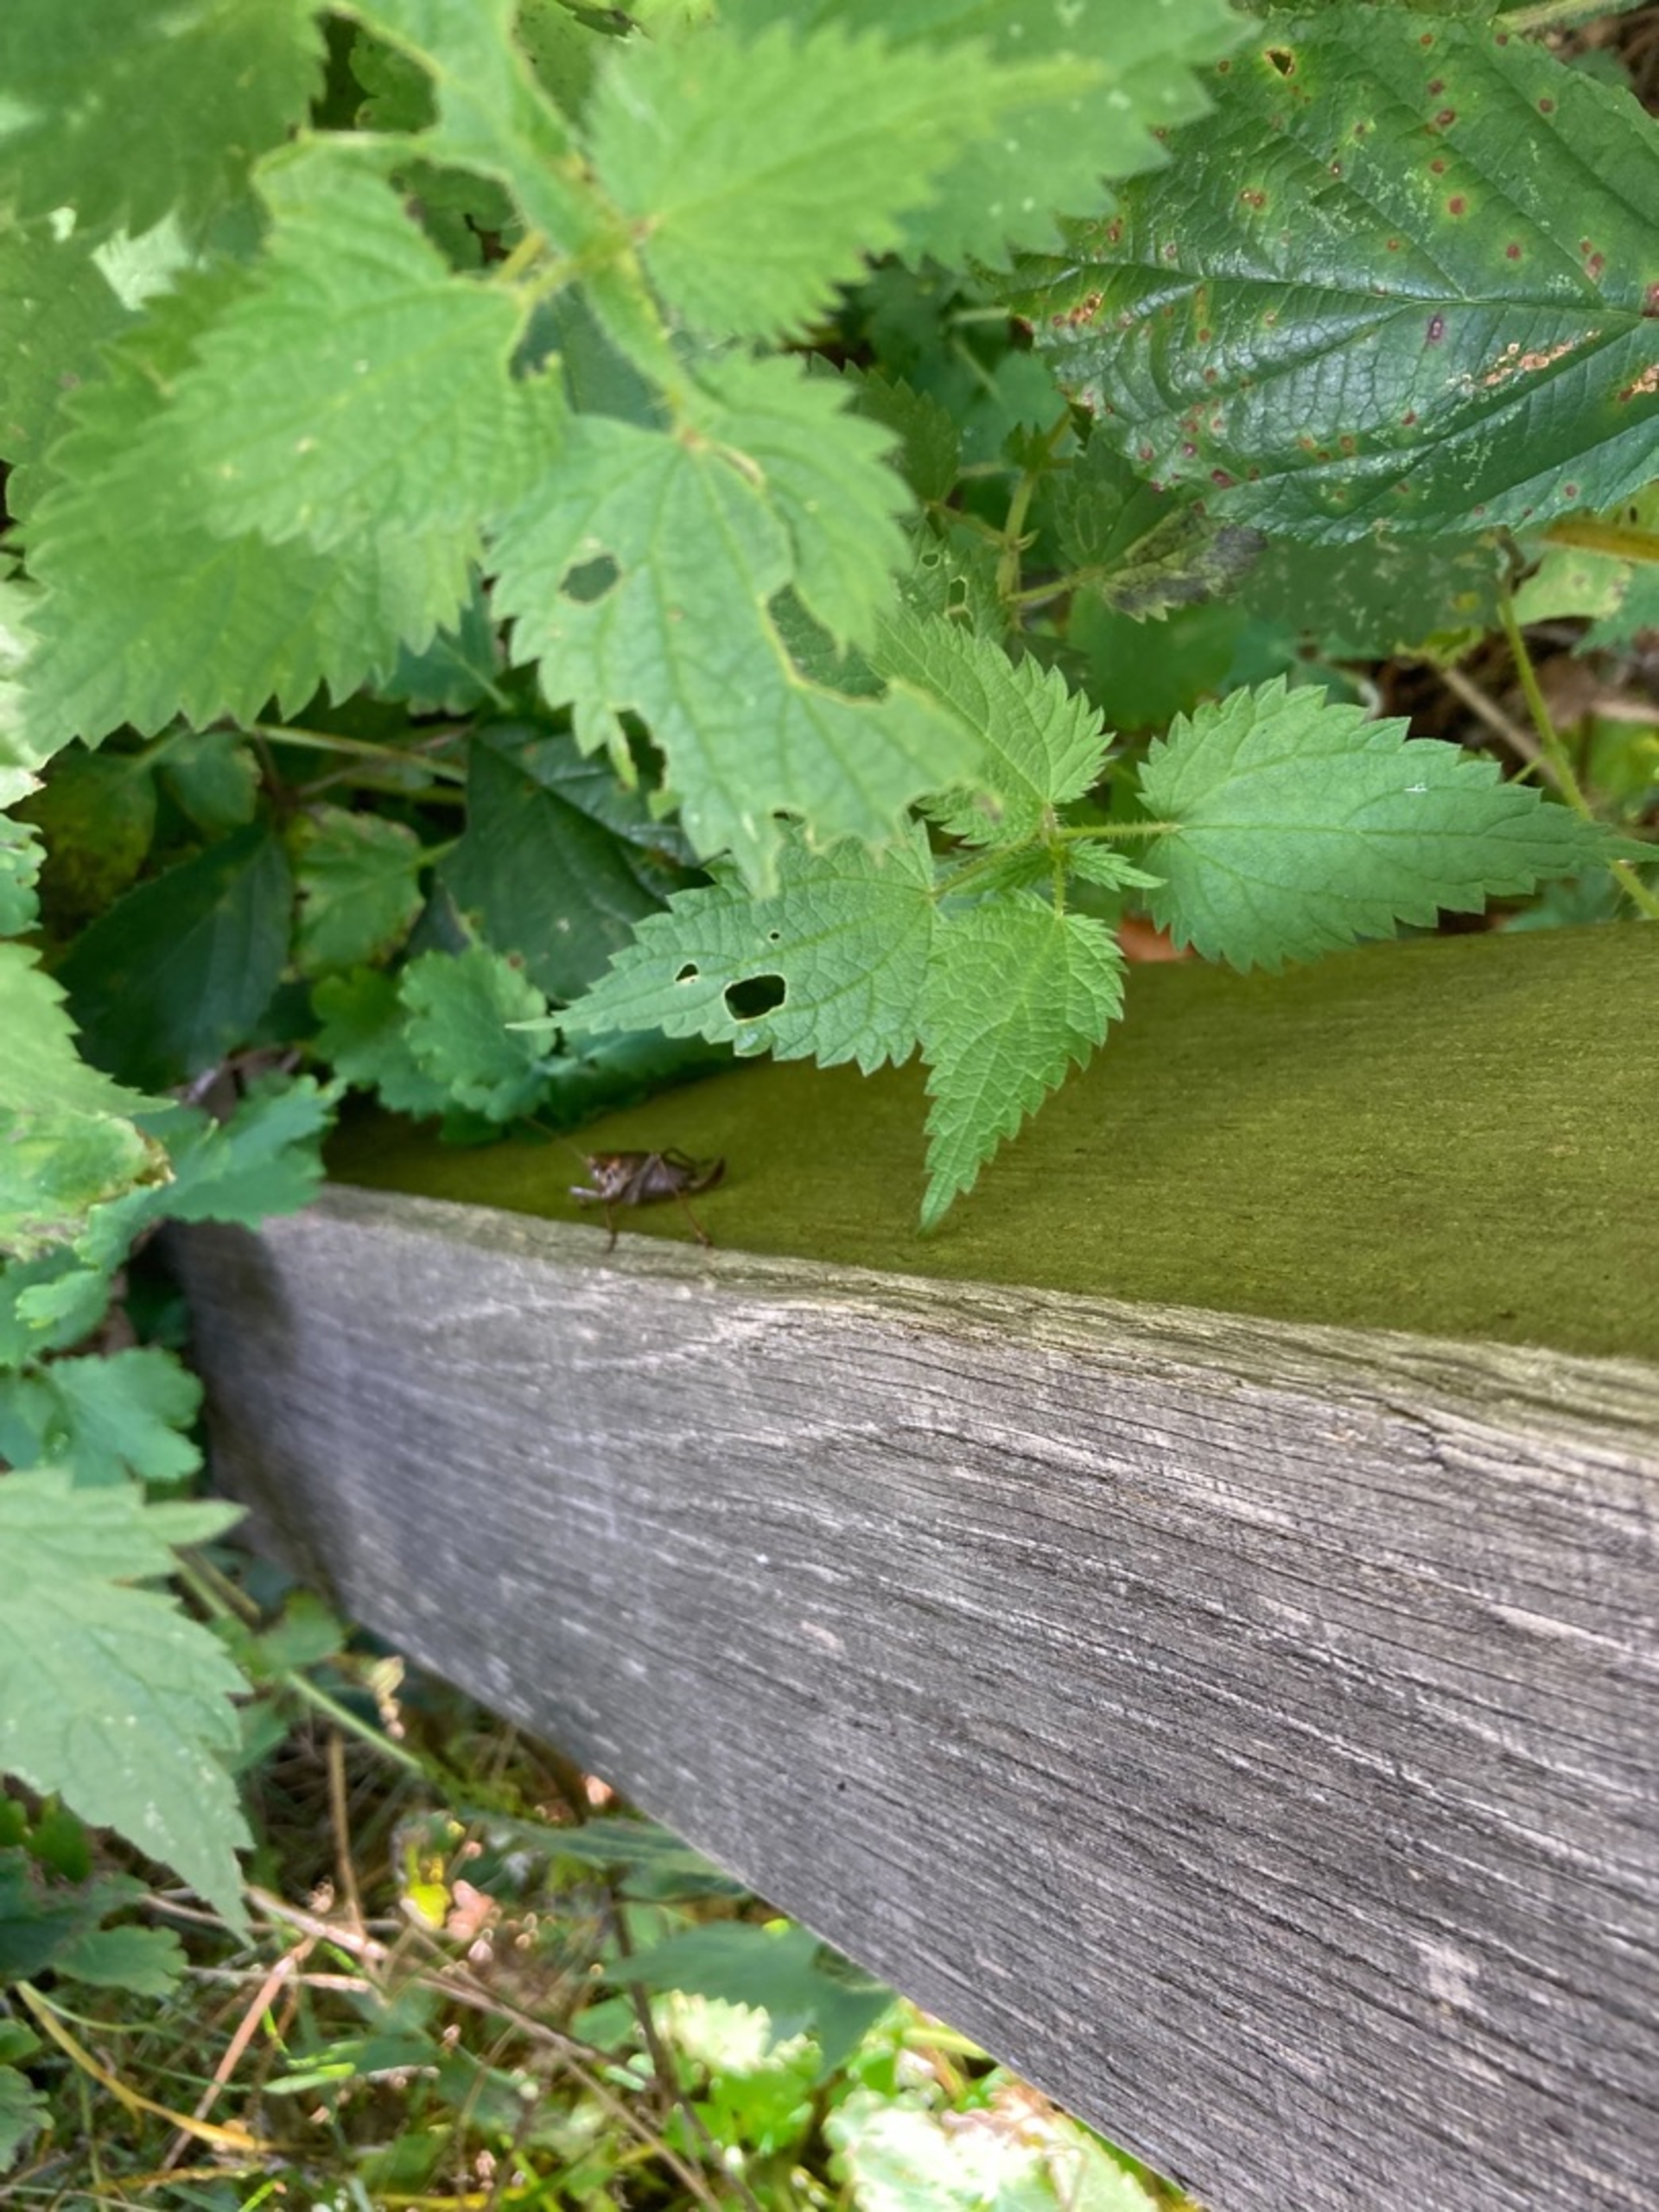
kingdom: Animalia
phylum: Arthropoda
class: Insecta
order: Orthoptera
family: Tettigoniidae
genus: Pholidoptera
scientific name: Pholidoptera griseoaptera
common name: Buskgræshoppe
